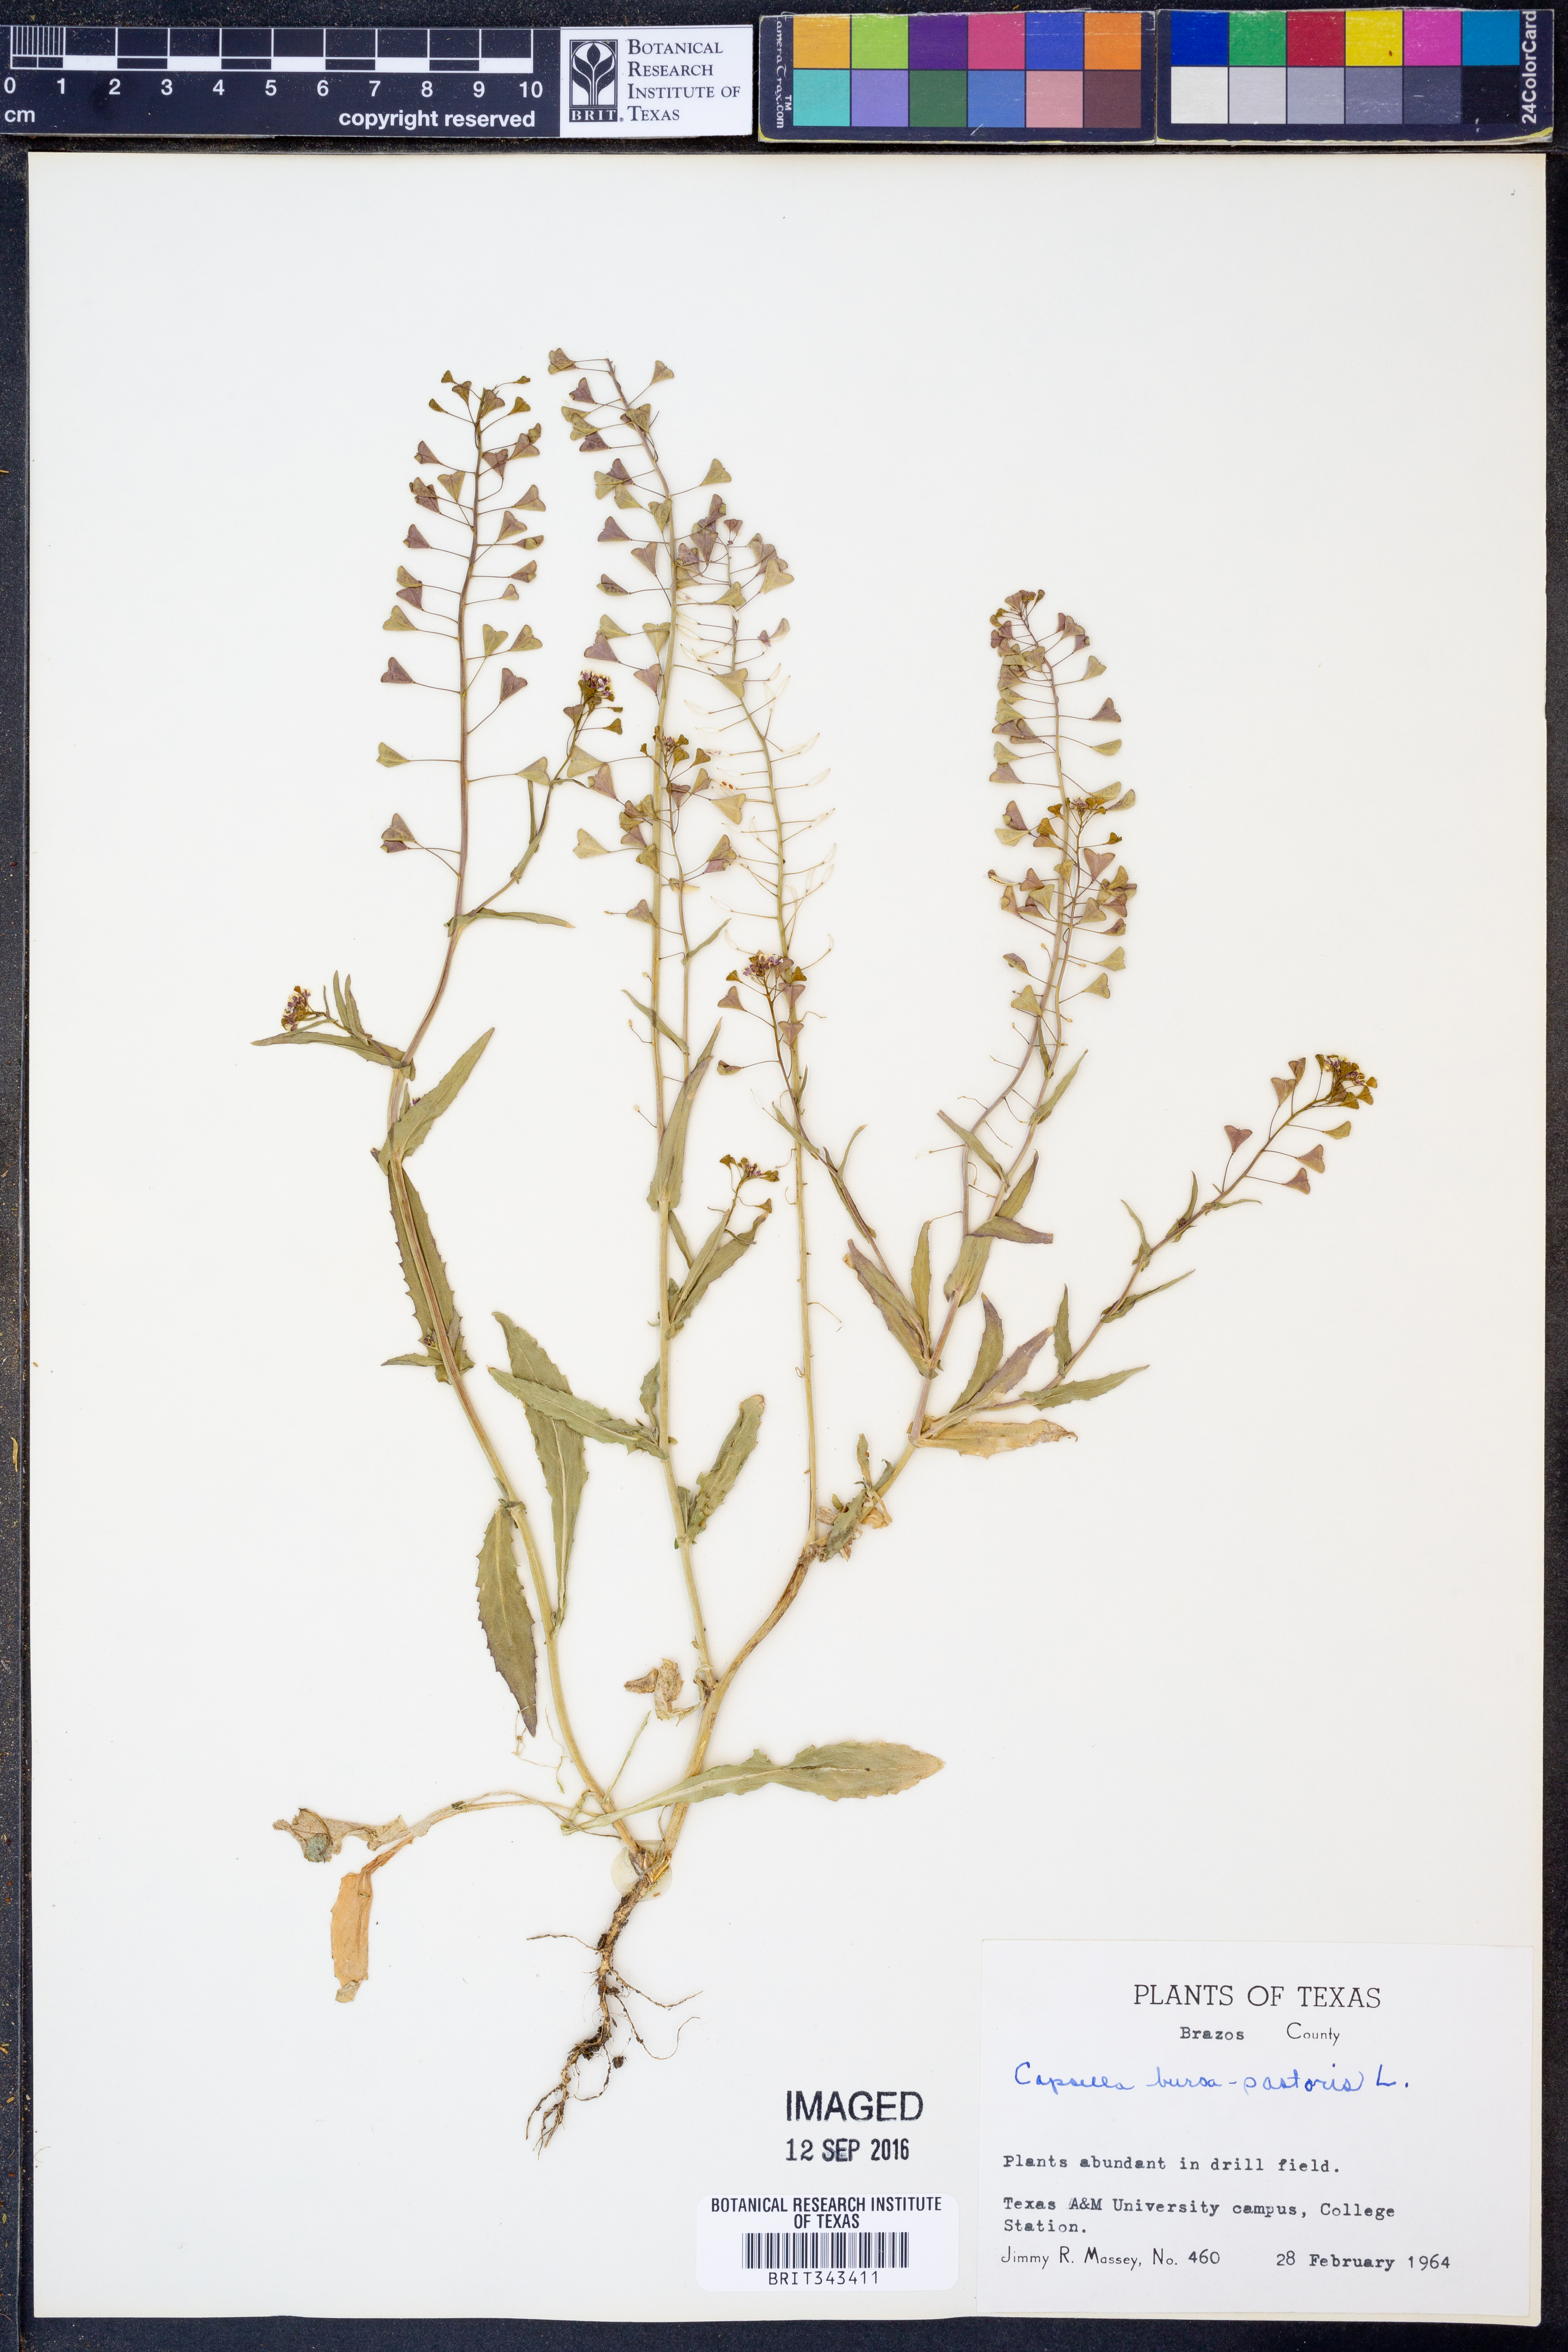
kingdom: Plantae
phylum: Tracheophyta
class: Magnoliopsida
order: Brassicales
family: Brassicaceae
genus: Capsella
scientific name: Capsella bursa-pastoris
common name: Shepherd's purse
